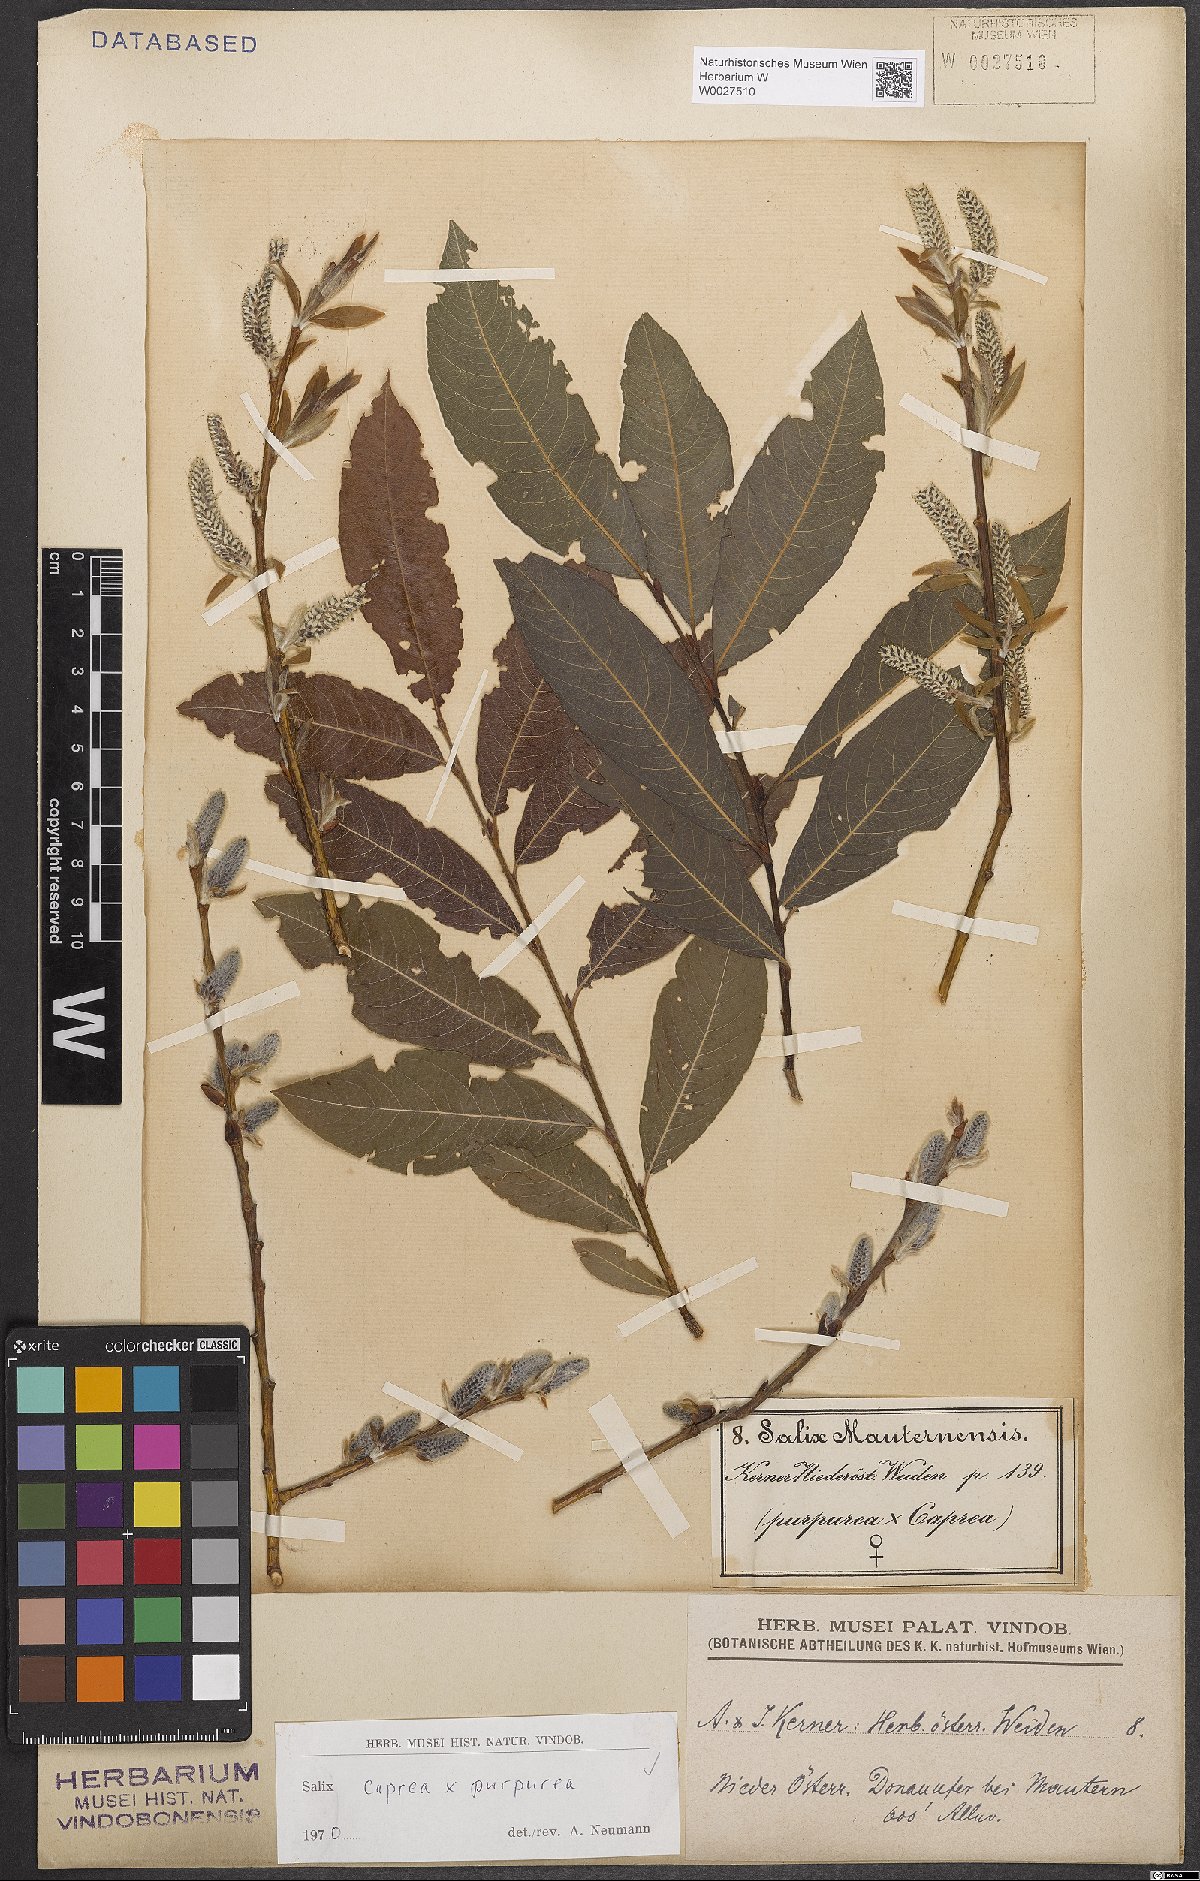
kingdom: Plantae
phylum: Tracheophyta
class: Magnoliopsida
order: Malpighiales
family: Salicaceae
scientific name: Salicaceae
